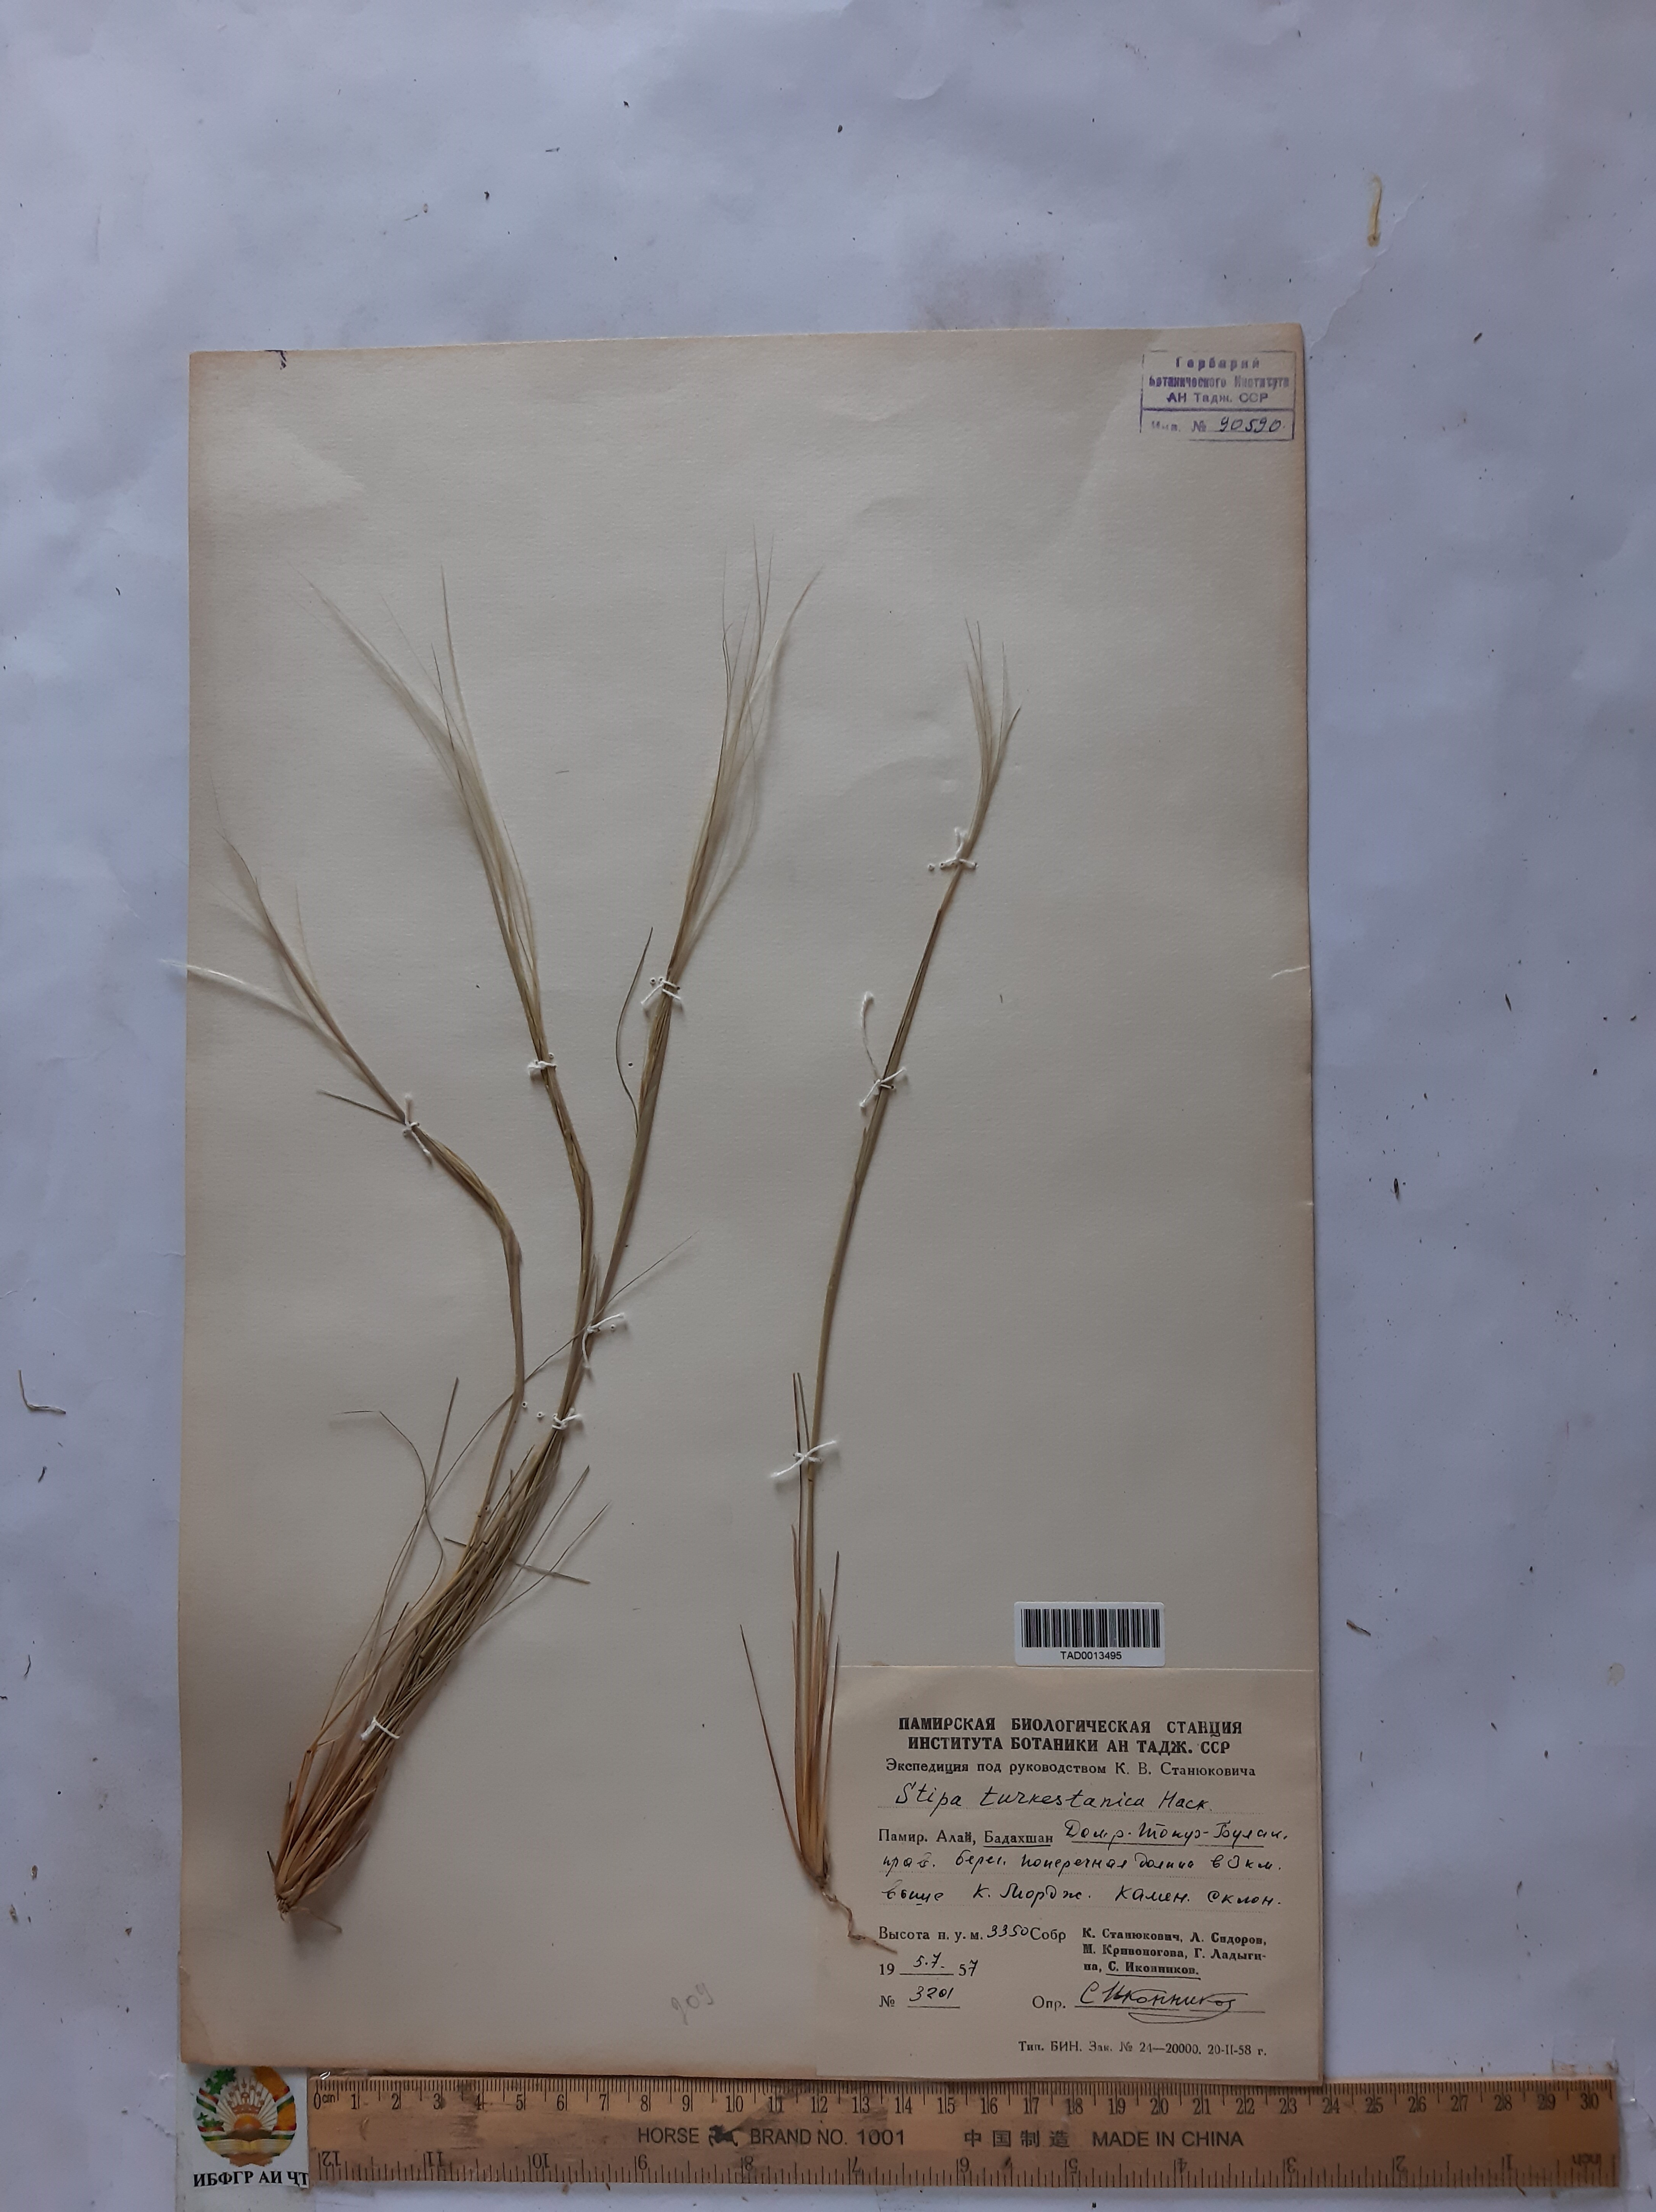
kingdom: Plantae
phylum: Tracheophyta
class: Liliopsida
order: Poales
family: Poaceae
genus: Stipa
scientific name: Stipa turkestanica
